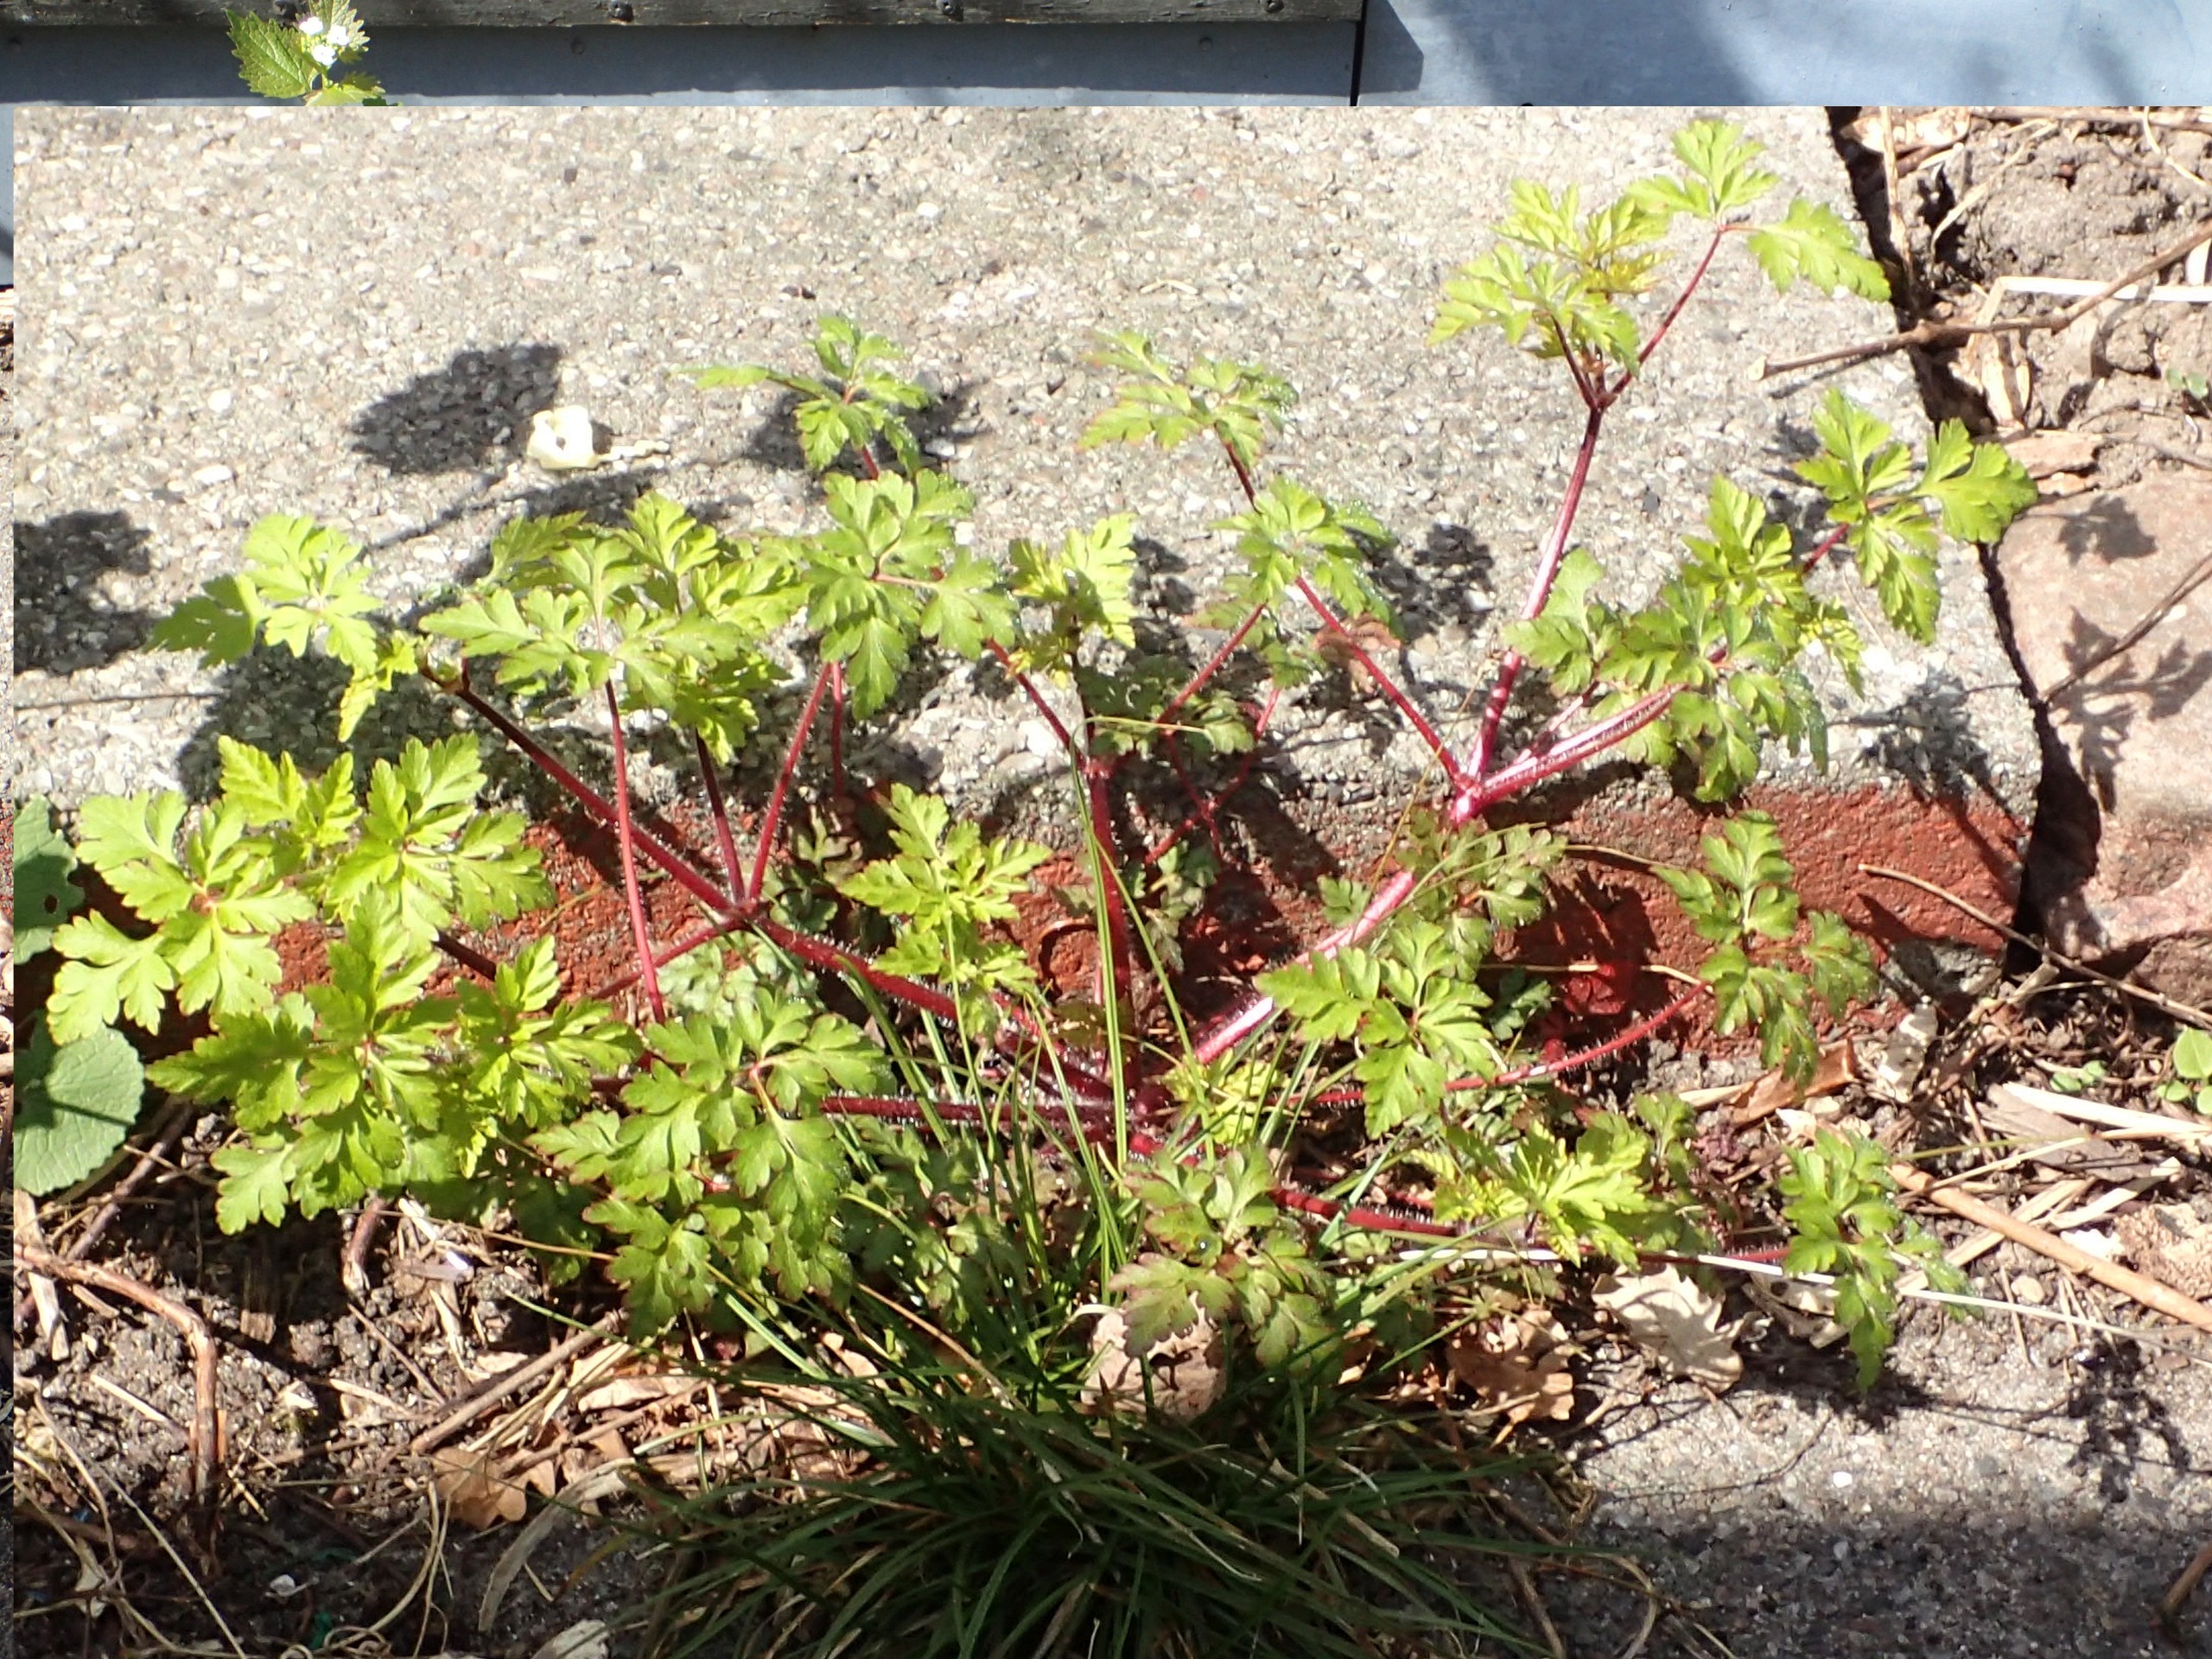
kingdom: Plantae
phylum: Tracheophyta
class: Magnoliopsida
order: Geraniales
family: Geraniaceae
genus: Geranium
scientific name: Geranium robertianum
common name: Stinkende storkenæb
